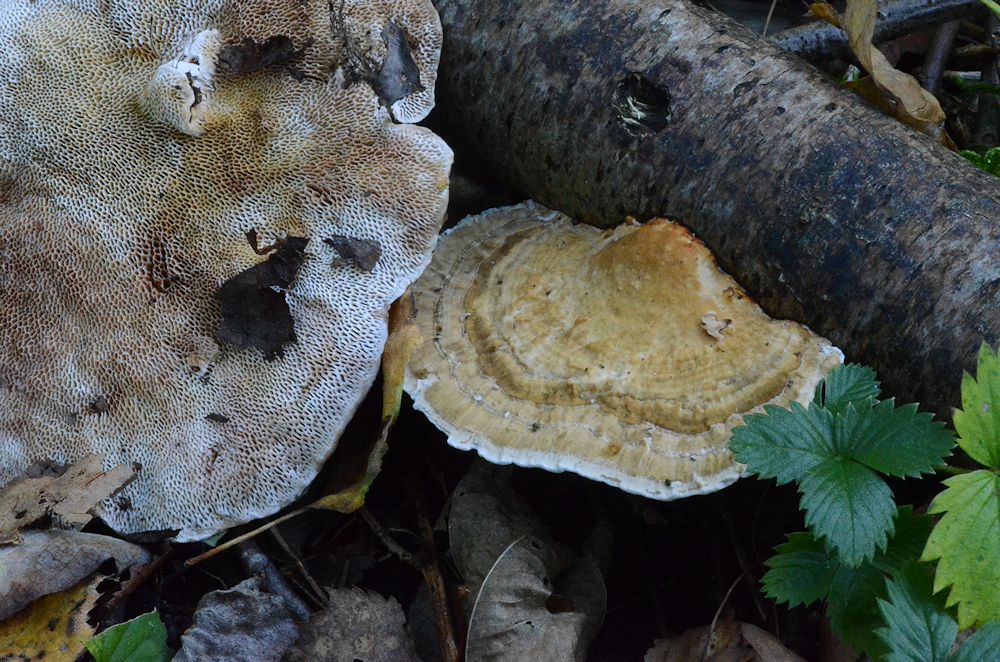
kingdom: Fungi
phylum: Basidiomycota
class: Agaricomycetes
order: Polyporales
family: Polyporaceae
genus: Daedaleopsis
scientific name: Daedaleopsis confragosa
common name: rødmende læderporesvamp
